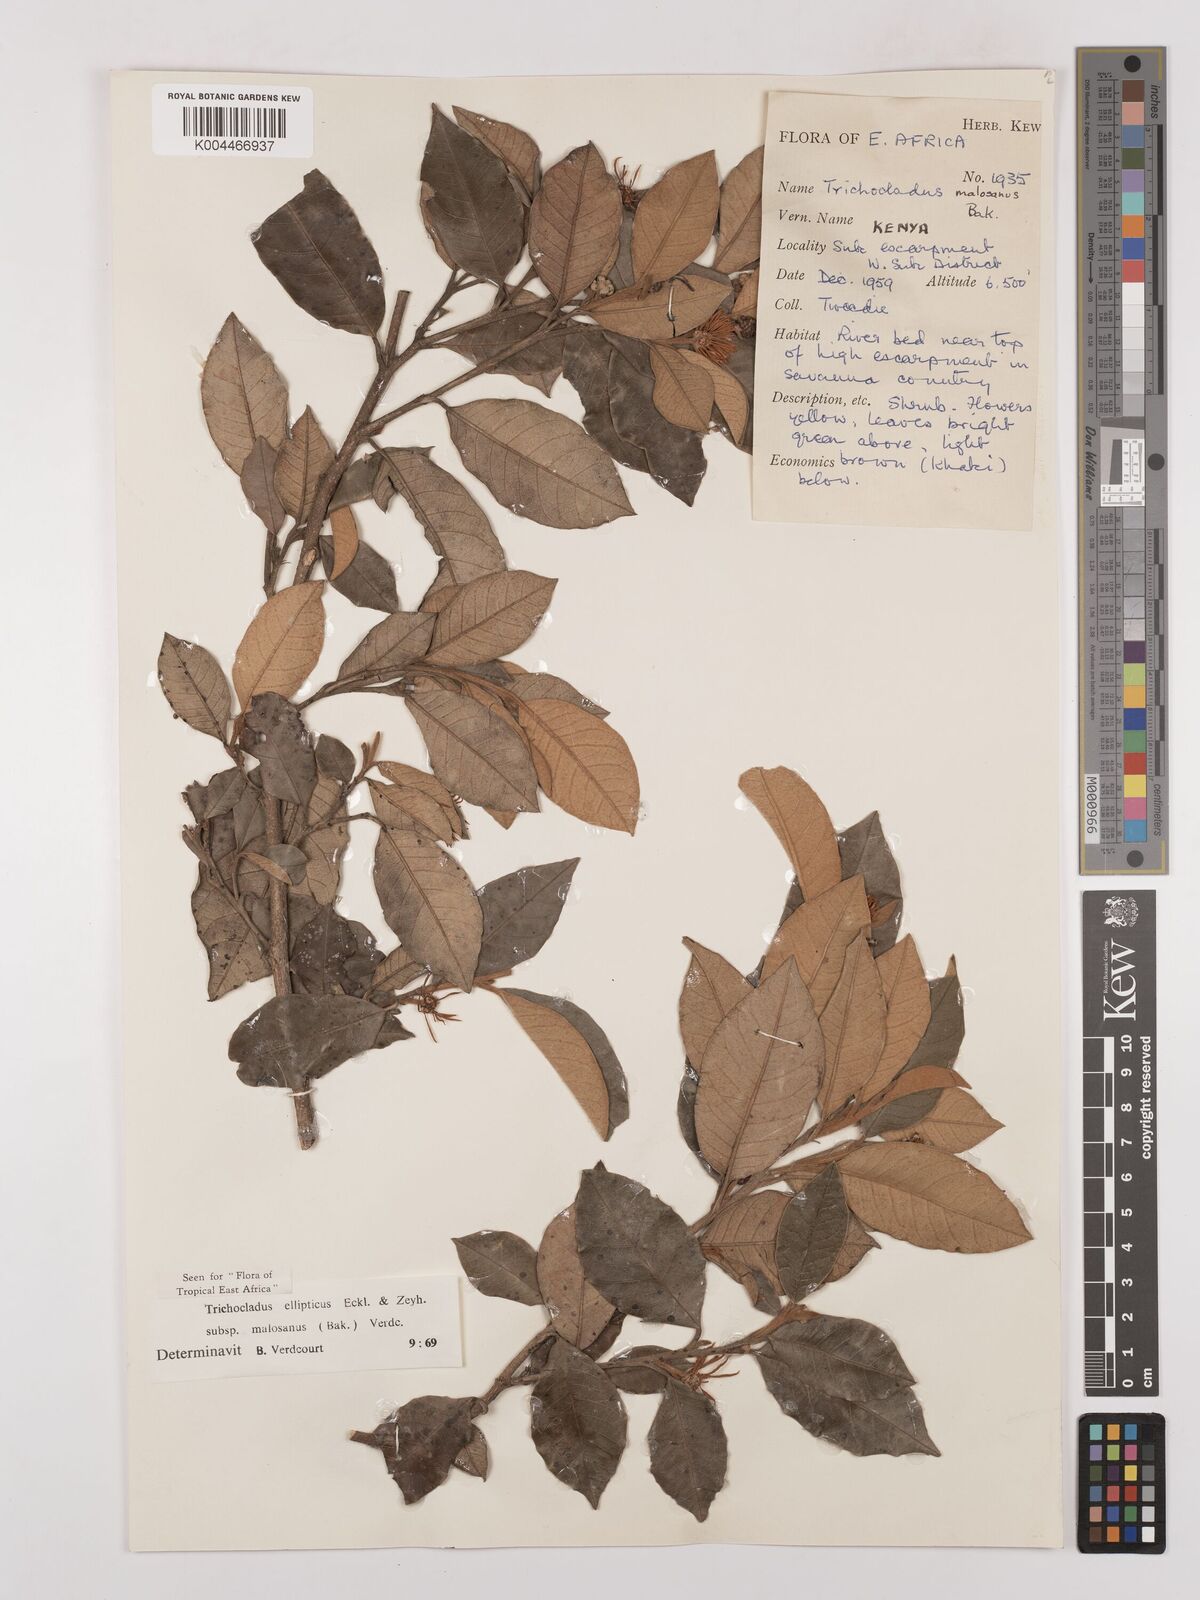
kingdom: Plantae
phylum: Tracheophyta
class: Magnoliopsida
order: Saxifragales
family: Hamamelidaceae
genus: Trichocladus
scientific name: Trichocladus ellipticus
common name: White witch-hazel
